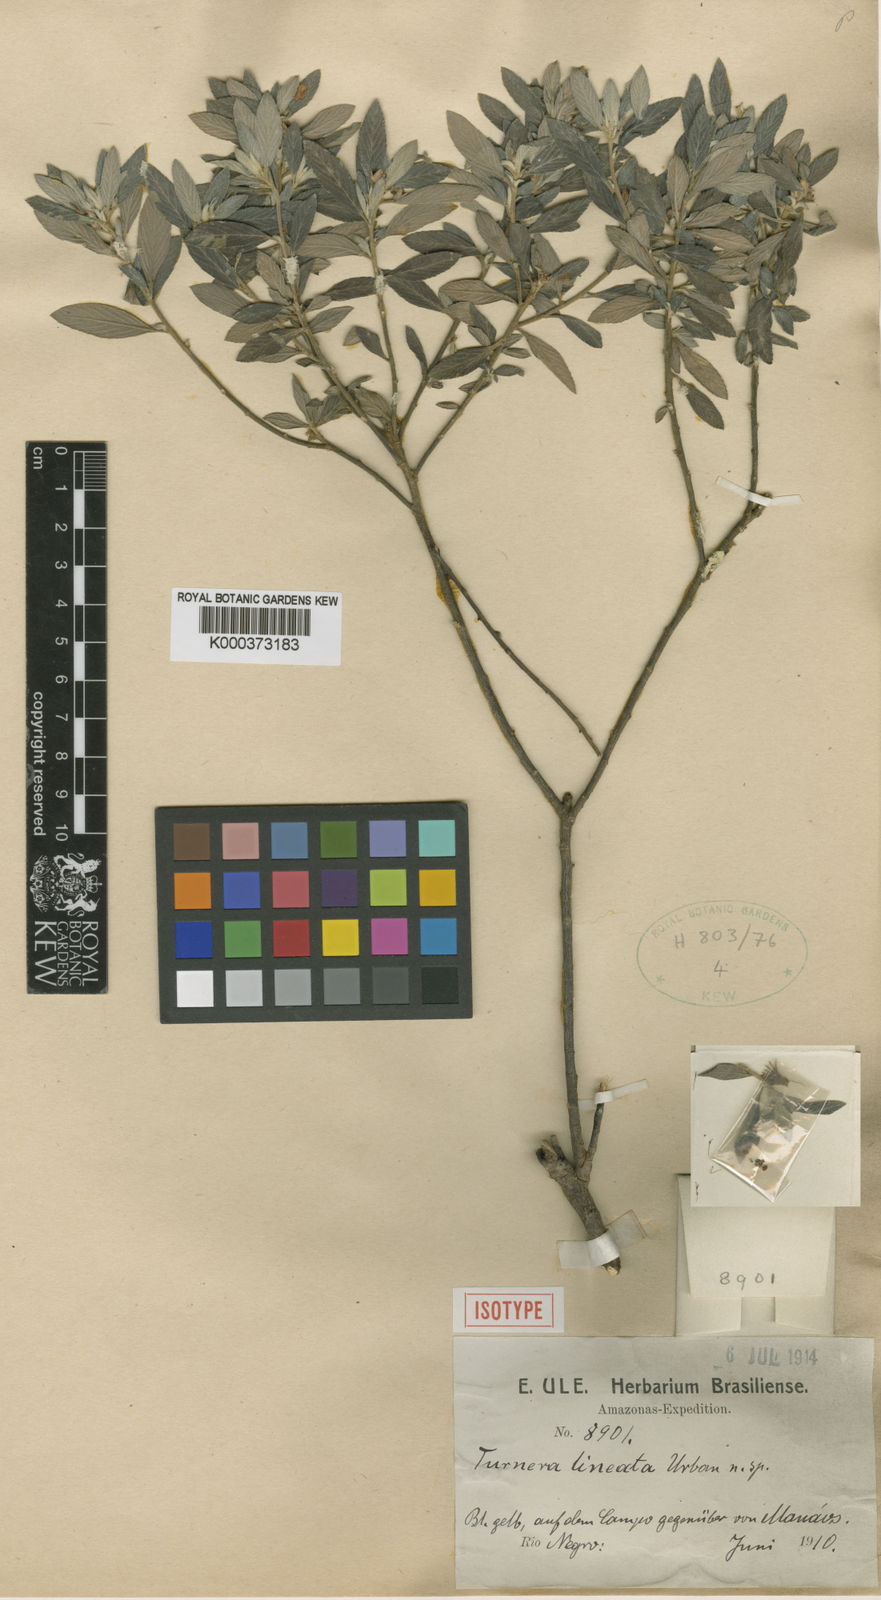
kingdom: Plantae
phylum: Tracheophyta
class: Magnoliopsida
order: Malpighiales
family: Turneraceae
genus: Turnera
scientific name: Turnera lineata
